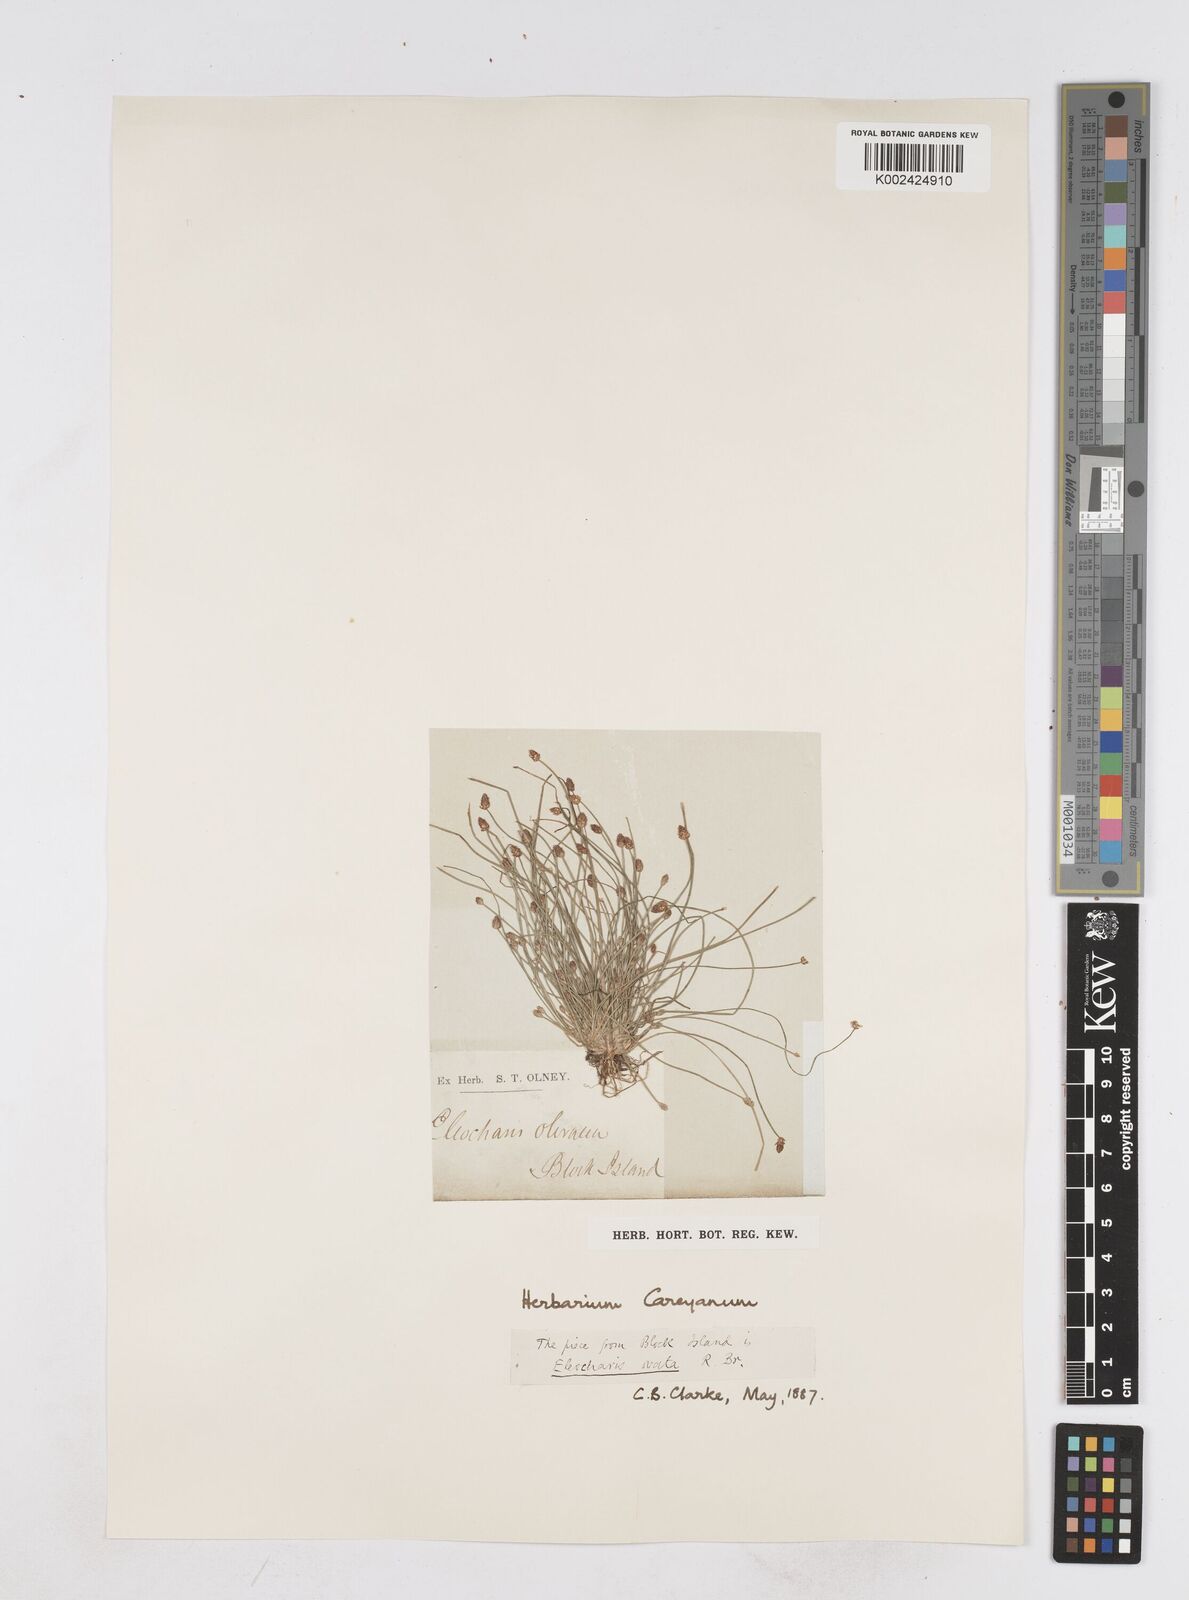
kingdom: Plantae
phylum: Tracheophyta
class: Liliopsida
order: Poales
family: Cyperaceae
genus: Eleocharis
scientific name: Eleocharis ovata
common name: Oval spike-rush
